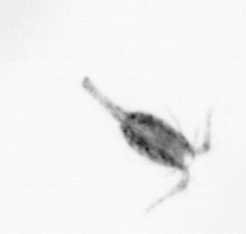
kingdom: Animalia
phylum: Arthropoda
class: Copepoda
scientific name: Copepoda
